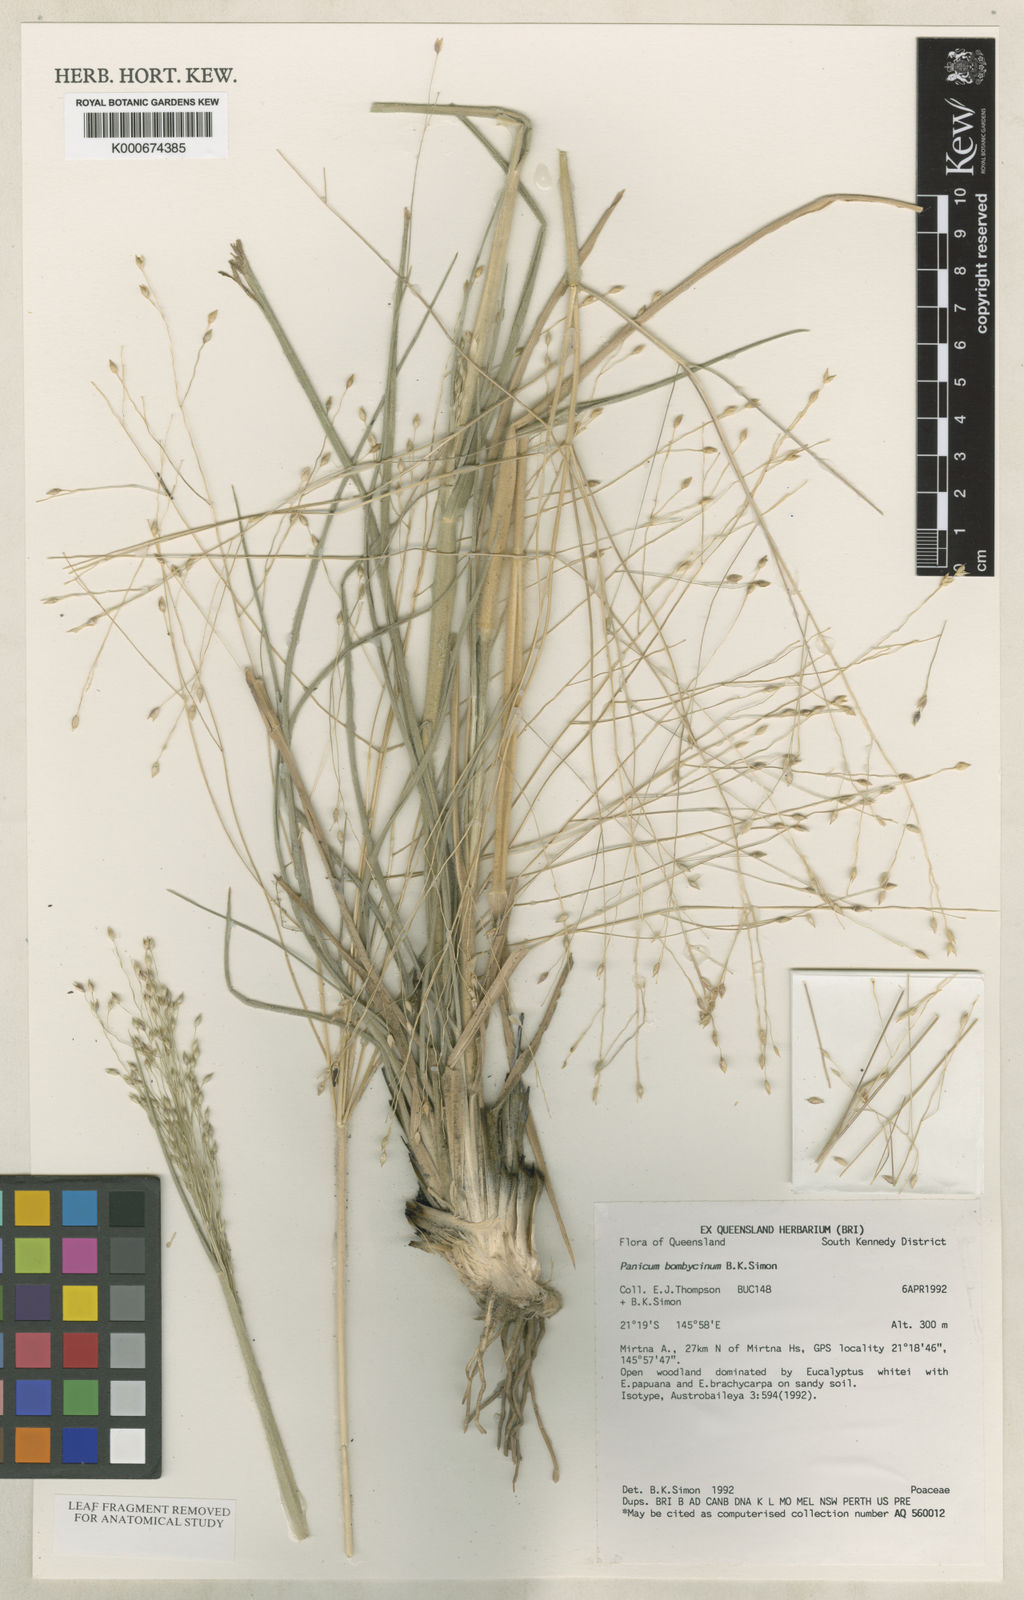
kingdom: Plantae
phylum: Tracheophyta
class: Liliopsida
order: Poales
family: Poaceae
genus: Panicum
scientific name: Panicum bombycinum
